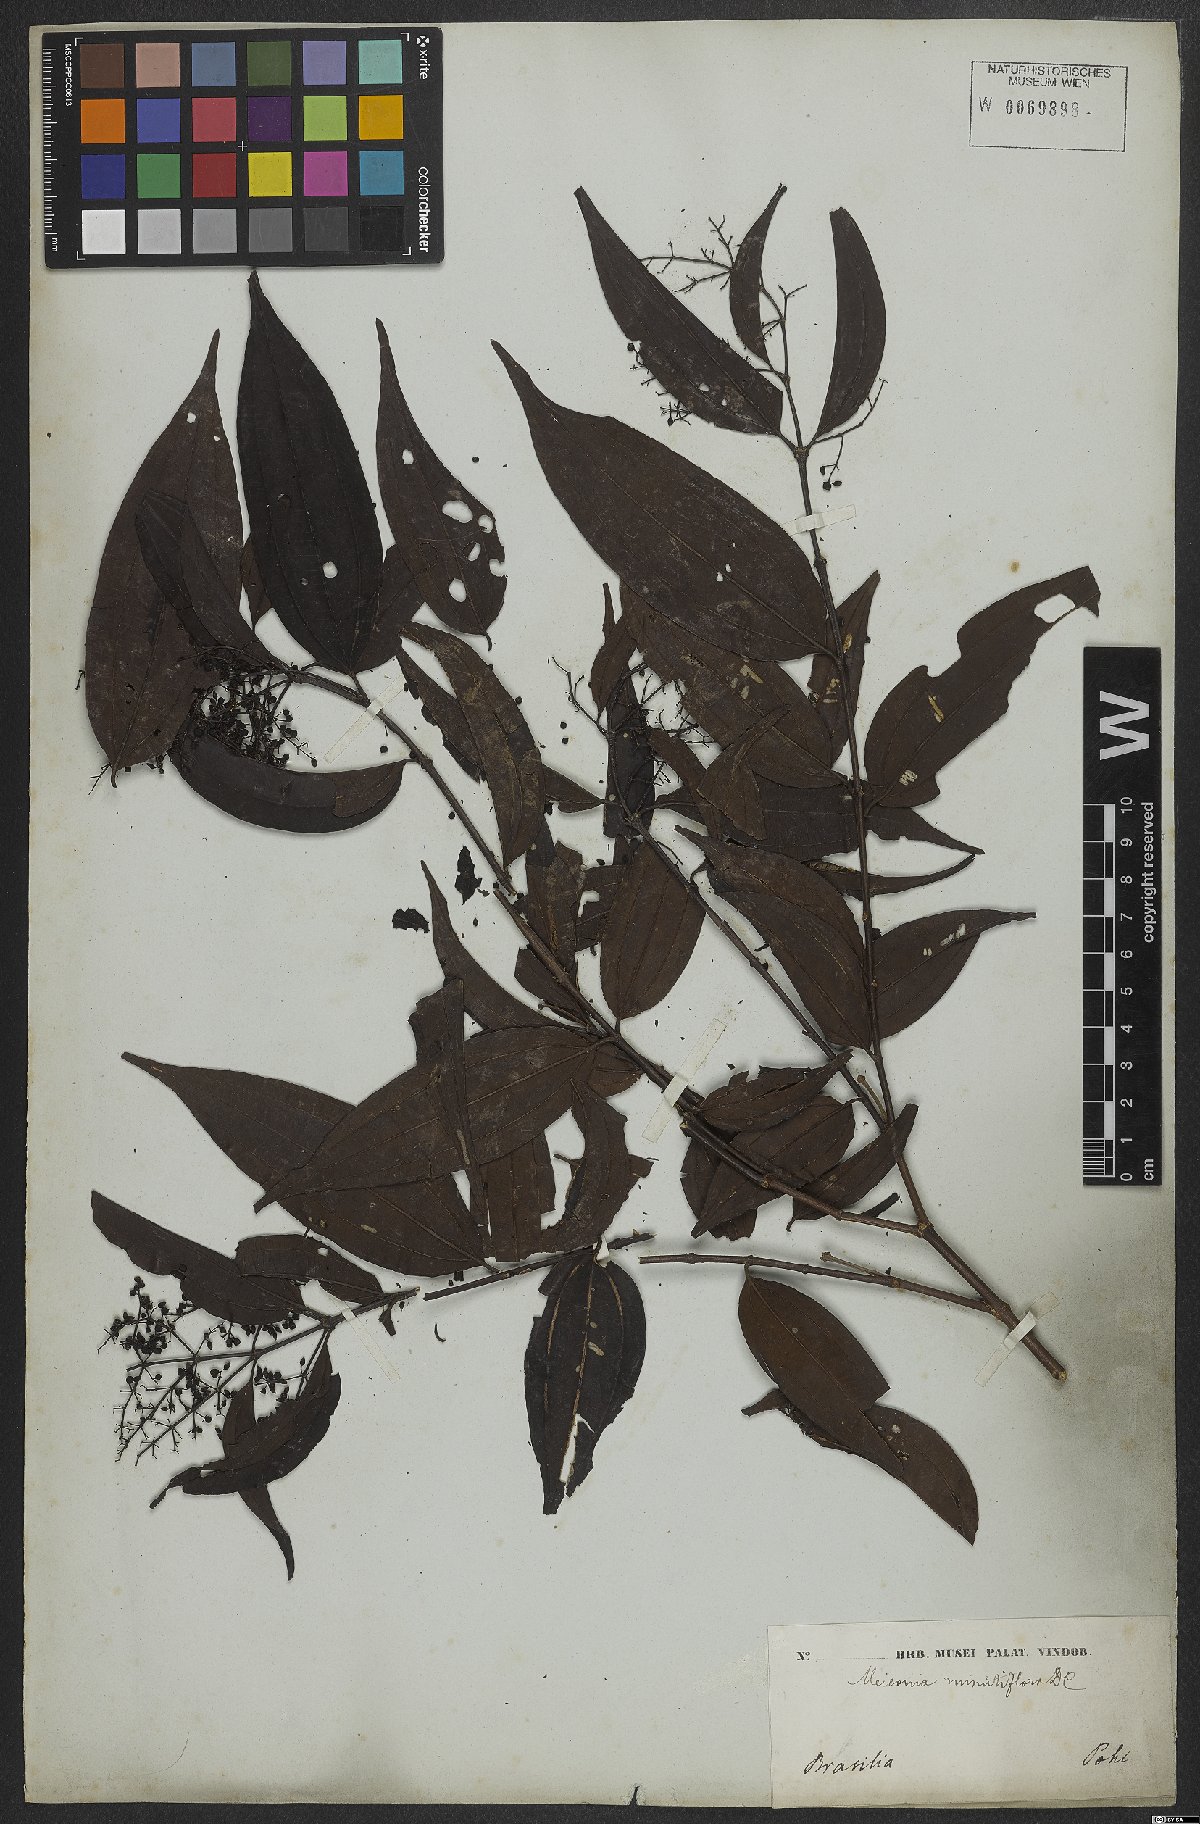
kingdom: Plantae
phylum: Tracheophyta
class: Magnoliopsida
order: Myrtales
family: Melastomataceae
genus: Miconia
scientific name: Miconia minutiflora
